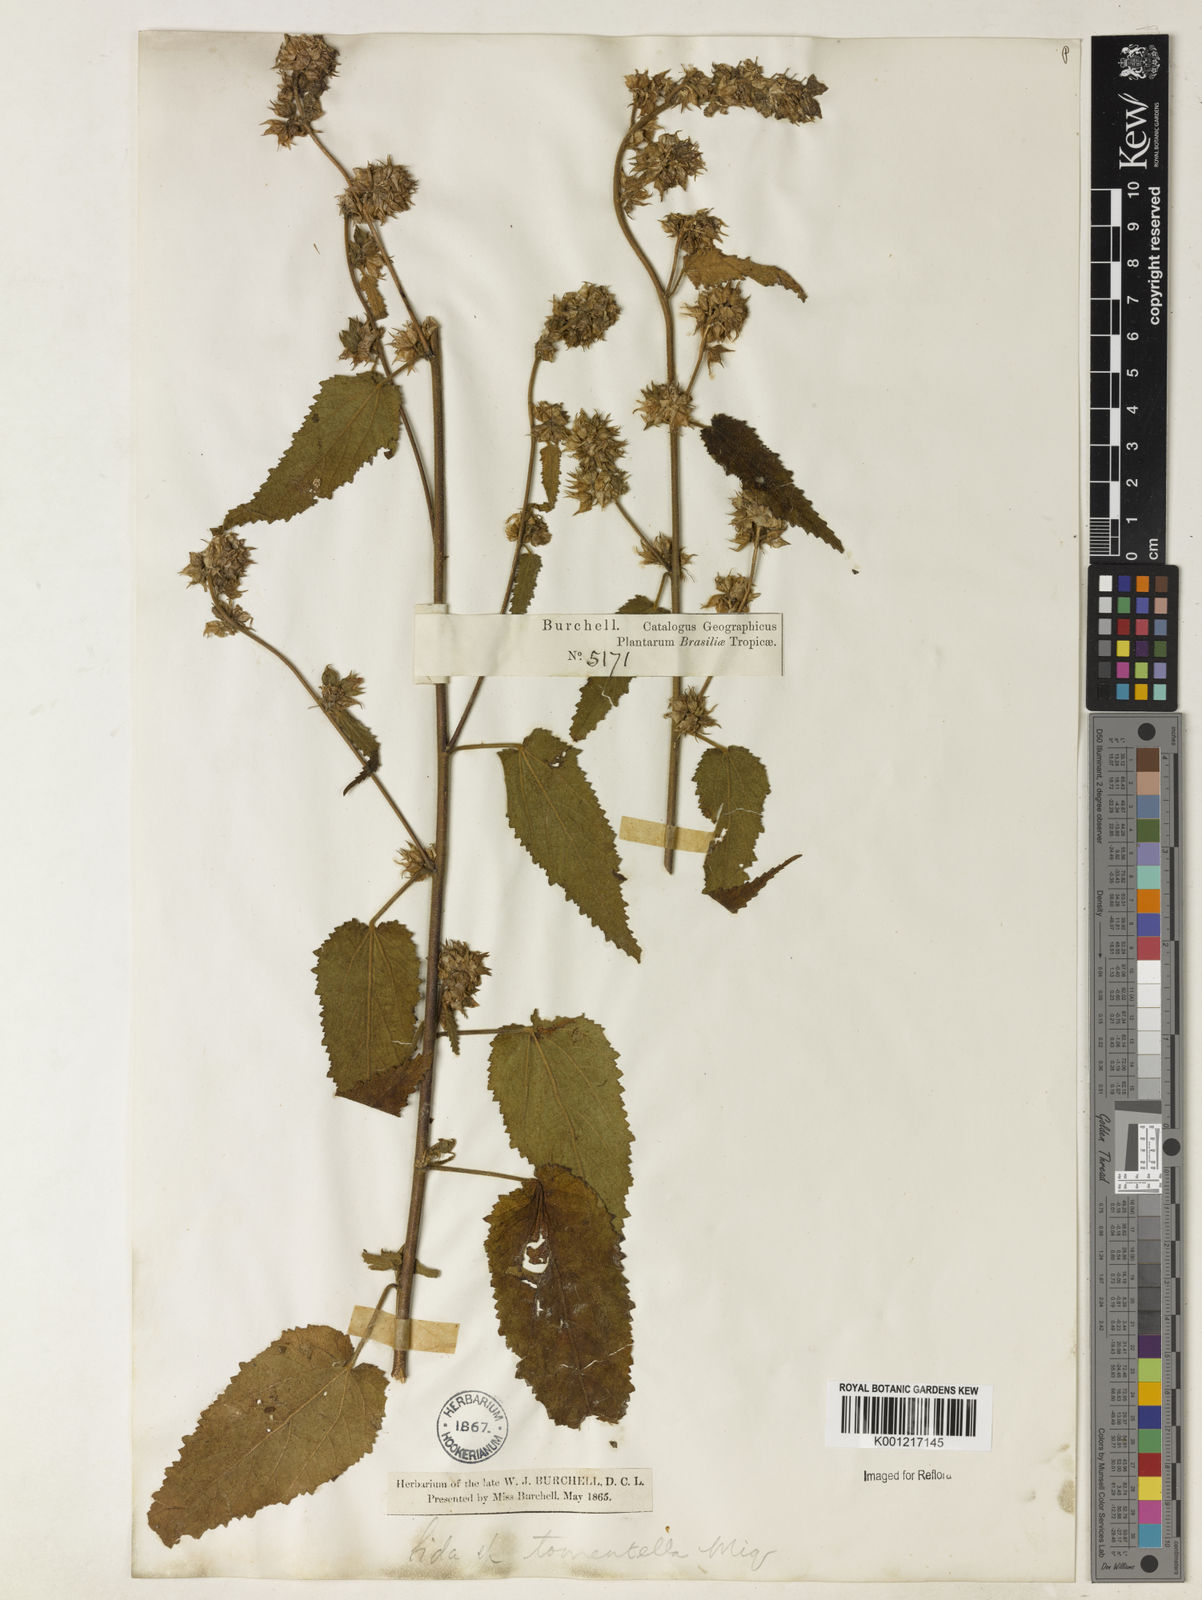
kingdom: Plantae
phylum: Tracheophyta
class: Magnoliopsida
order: Malvales
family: Malvaceae
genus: Sida
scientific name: Sida
